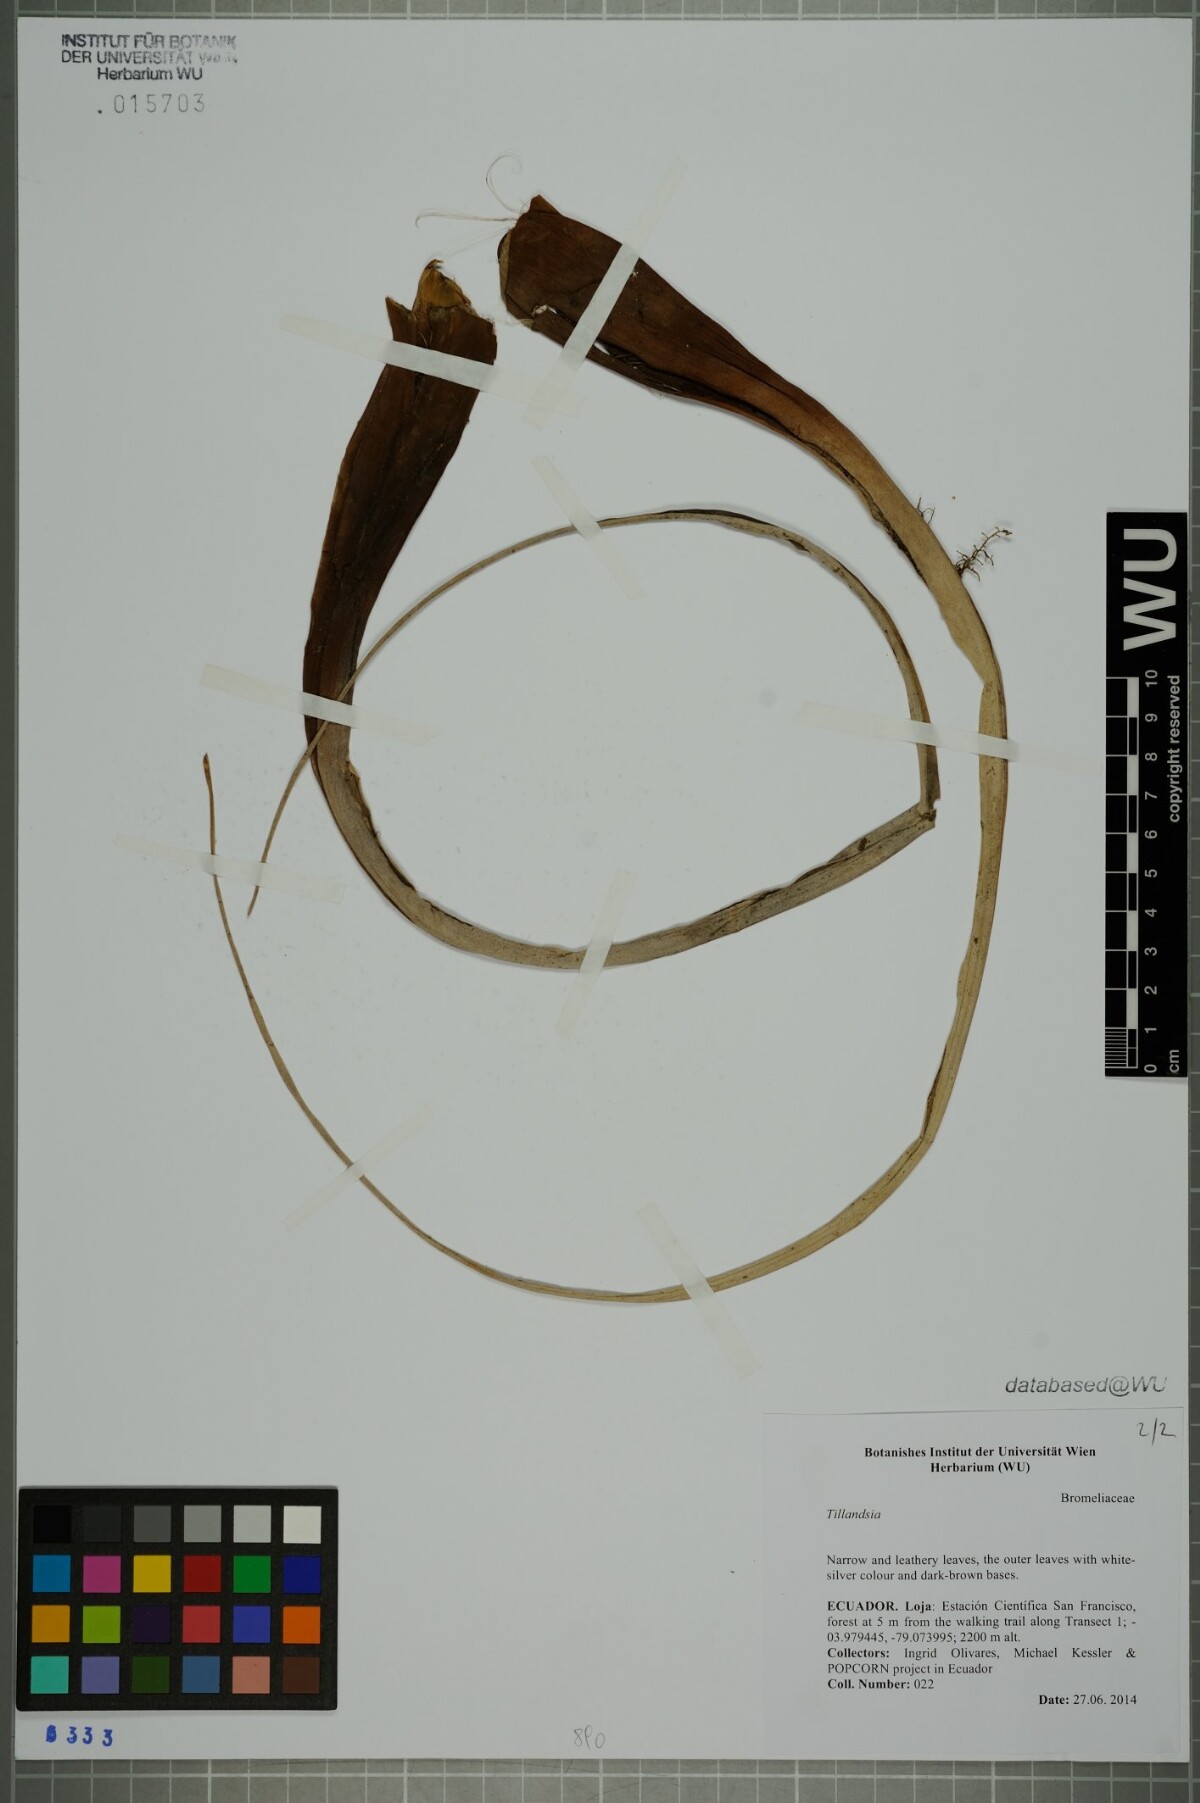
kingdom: Plantae
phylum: Tracheophyta
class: Liliopsida
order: Poales
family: Bromeliaceae
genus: Tillandsia
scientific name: Tillandsia
